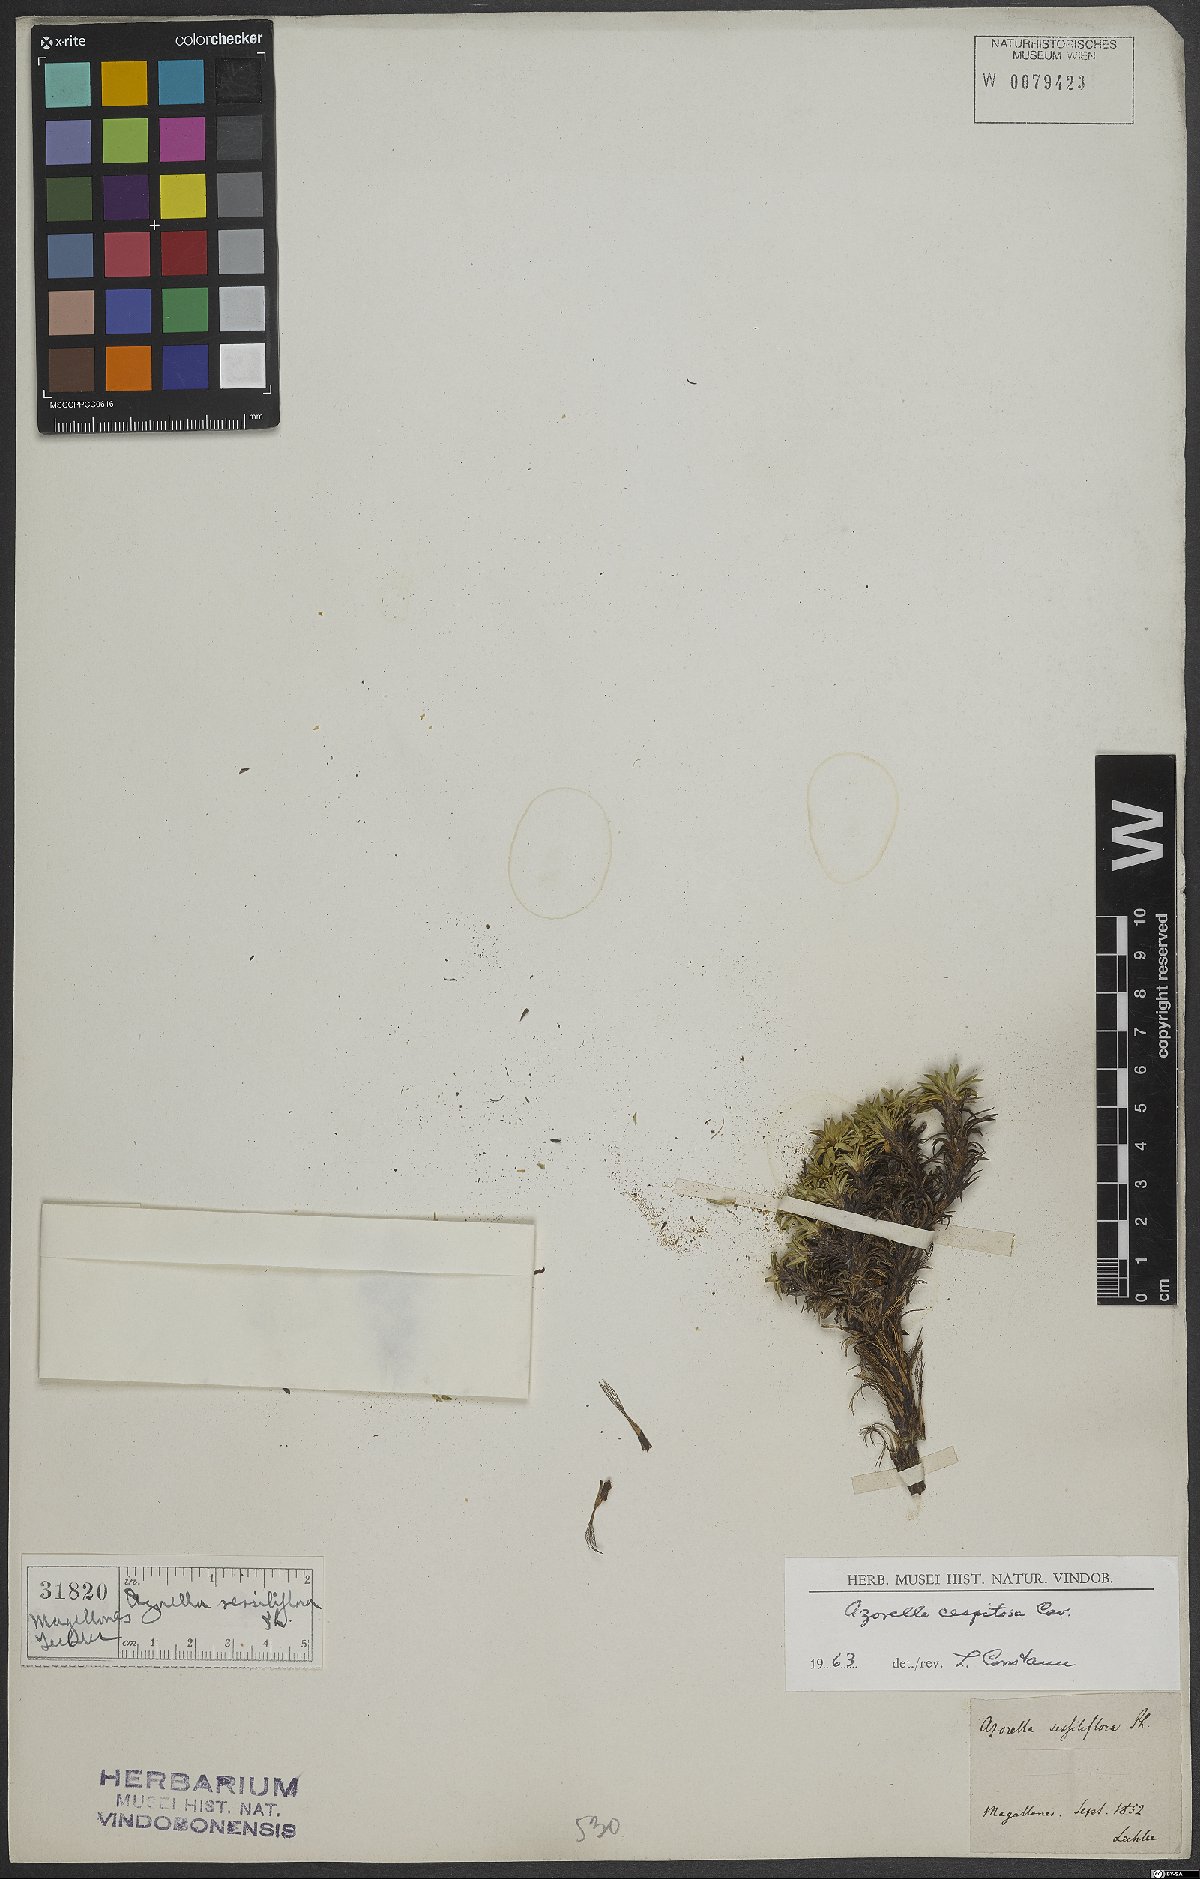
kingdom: Plantae
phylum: Tracheophyta
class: Magnoliopsida
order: Apiales
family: Apiaceae
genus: Azorella
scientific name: Azorella trifurcata
